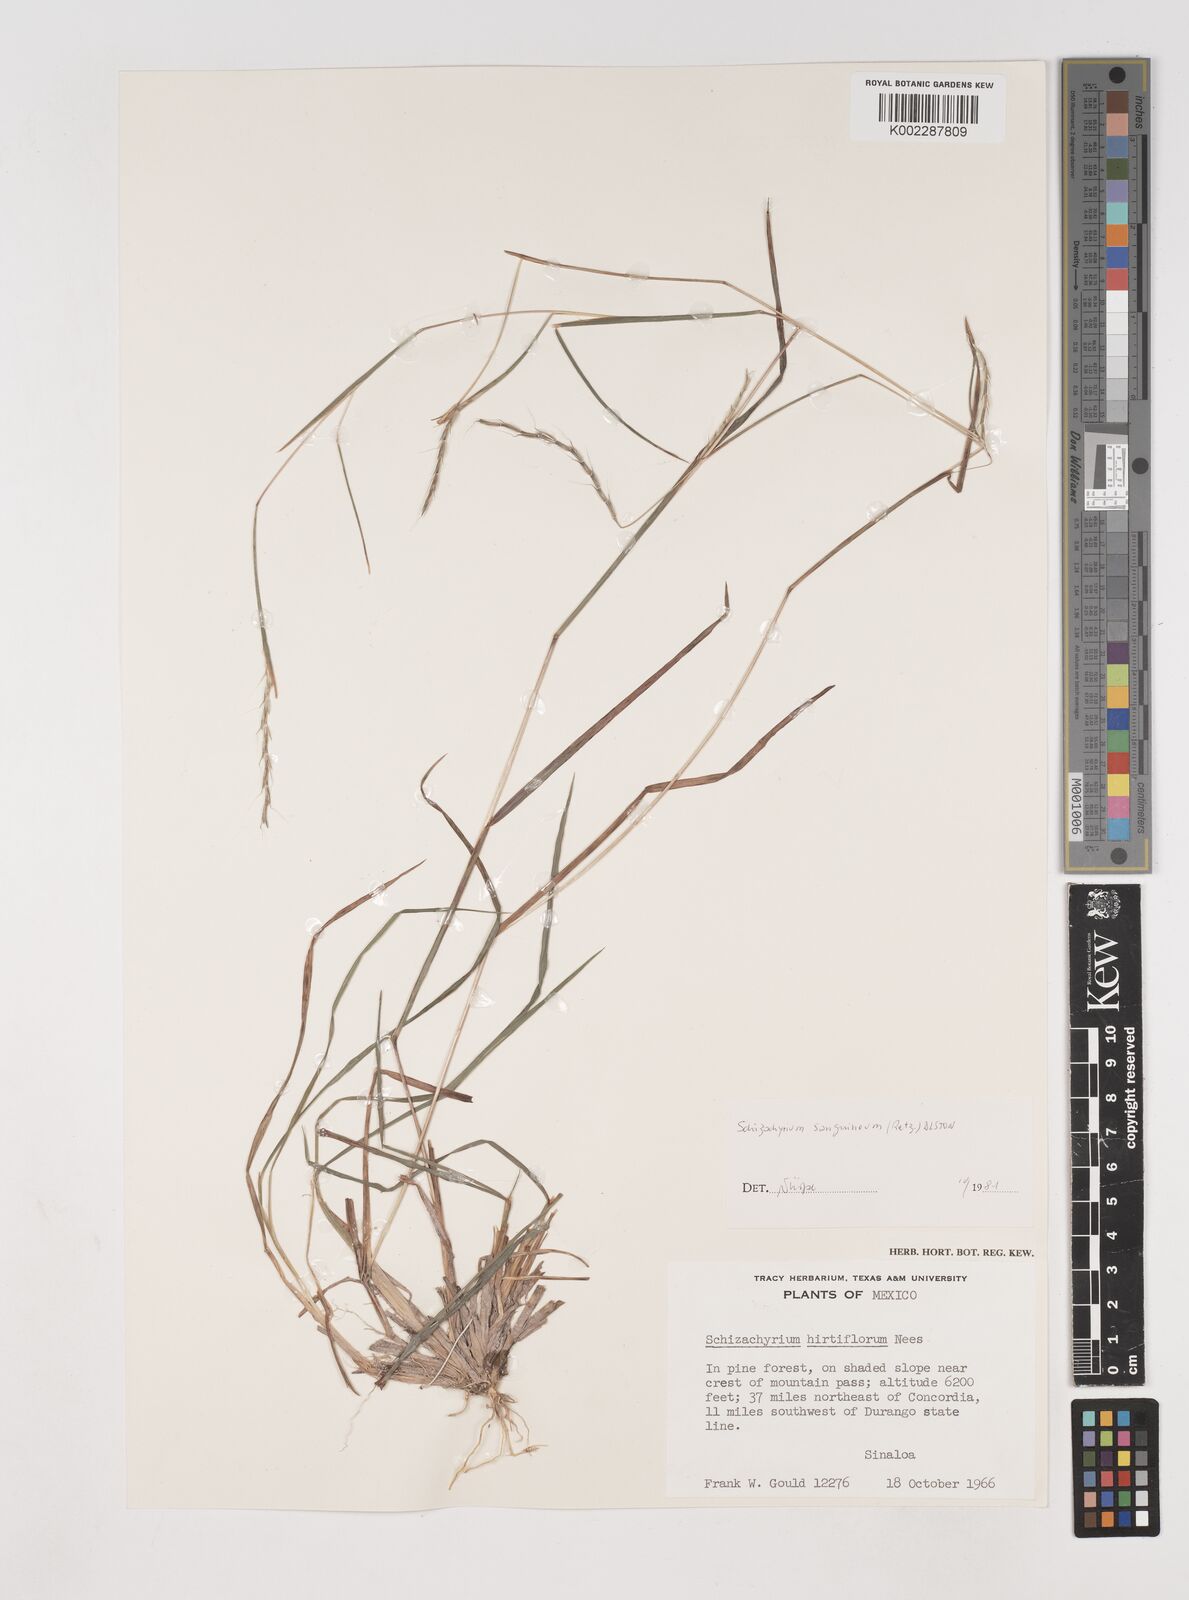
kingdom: Plantae
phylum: Tracheophyta
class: Liliopsida
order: Poales
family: Poaceae
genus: Schizachyrium
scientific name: Schizachyrium sanguineum
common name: Crimson bluestem
